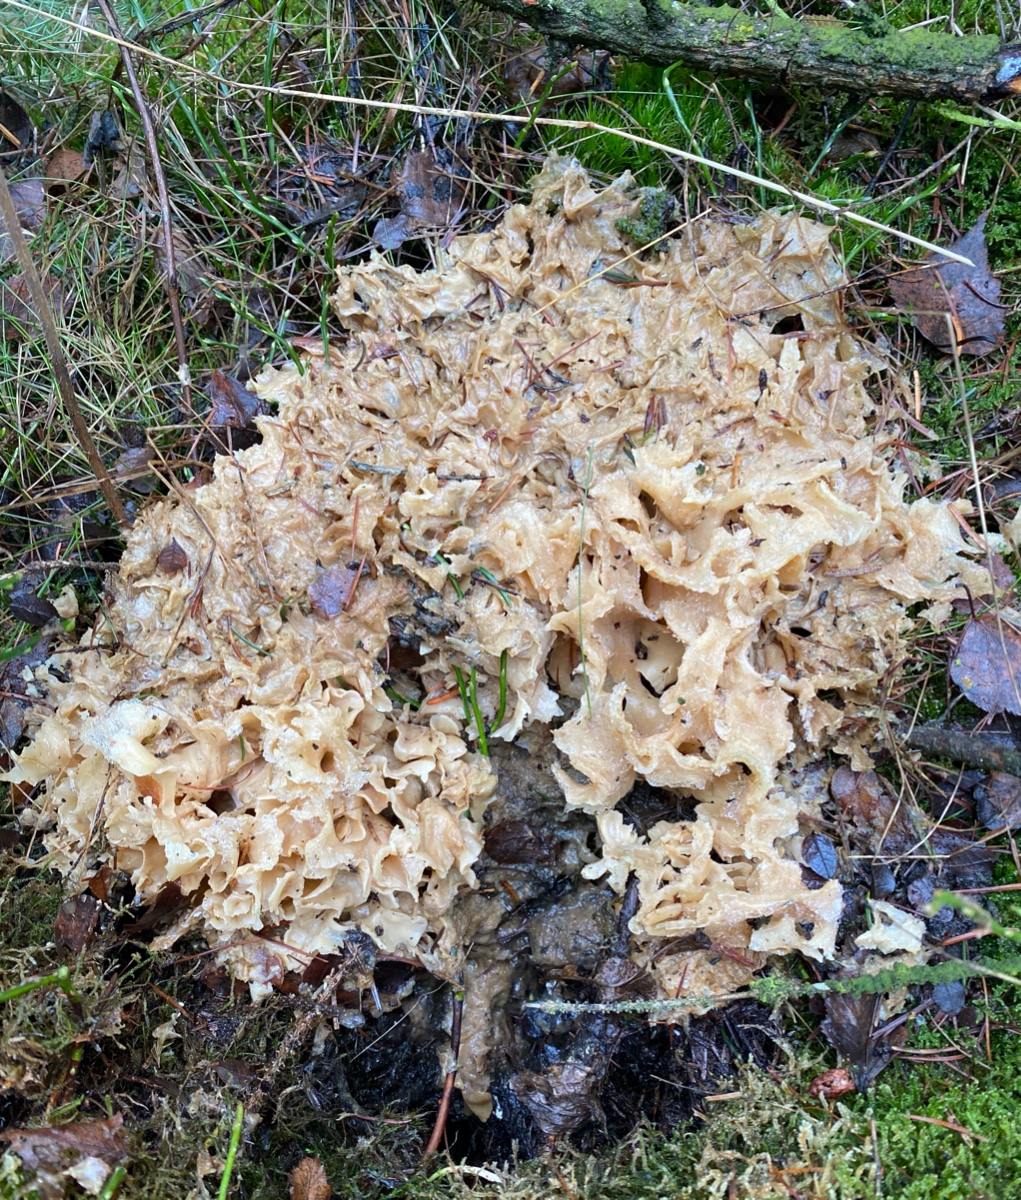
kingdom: Fungi
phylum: Basidiomycota
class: Agaricomycetes
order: Polyporales
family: Sparassidaceae
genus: Sparassis
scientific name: Sparassis crispa
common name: kruset blomkålssvamp
